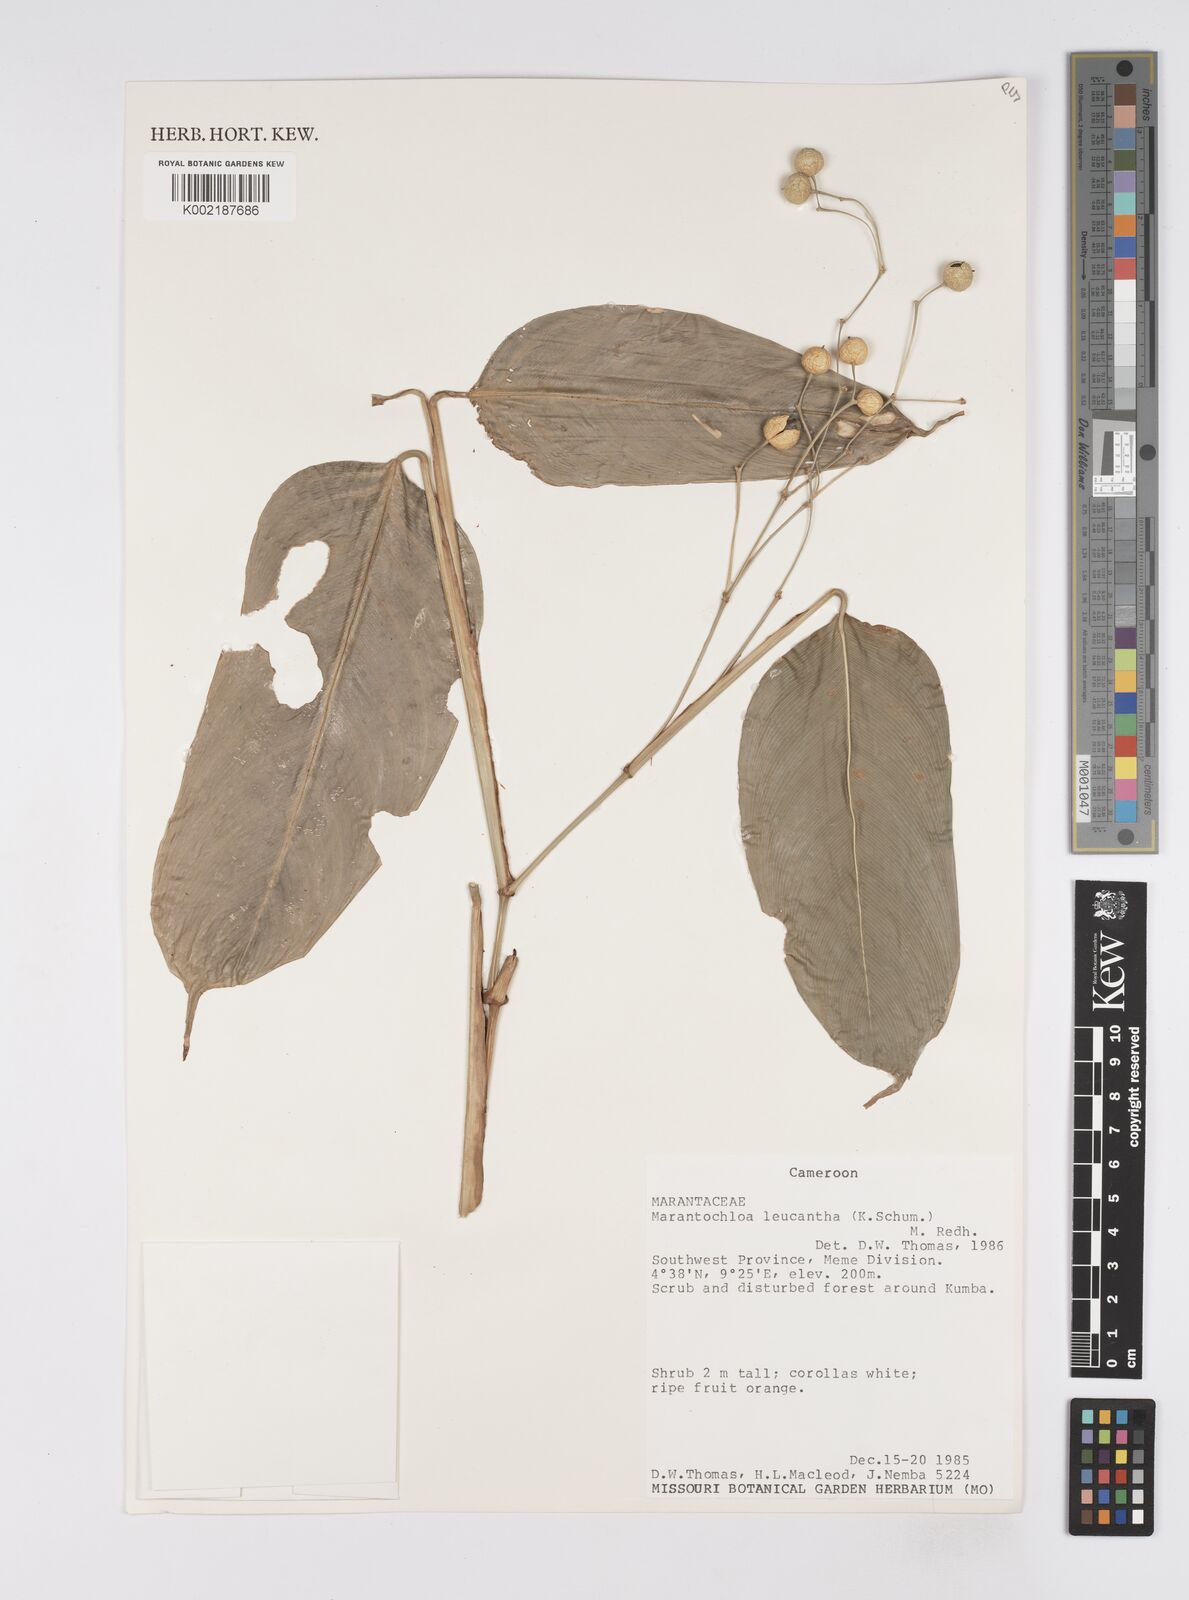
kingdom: Plantae
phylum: Tracheophyta
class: Liliopsida
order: Zingiberales
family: Marantaceae
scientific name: Marantaceae
